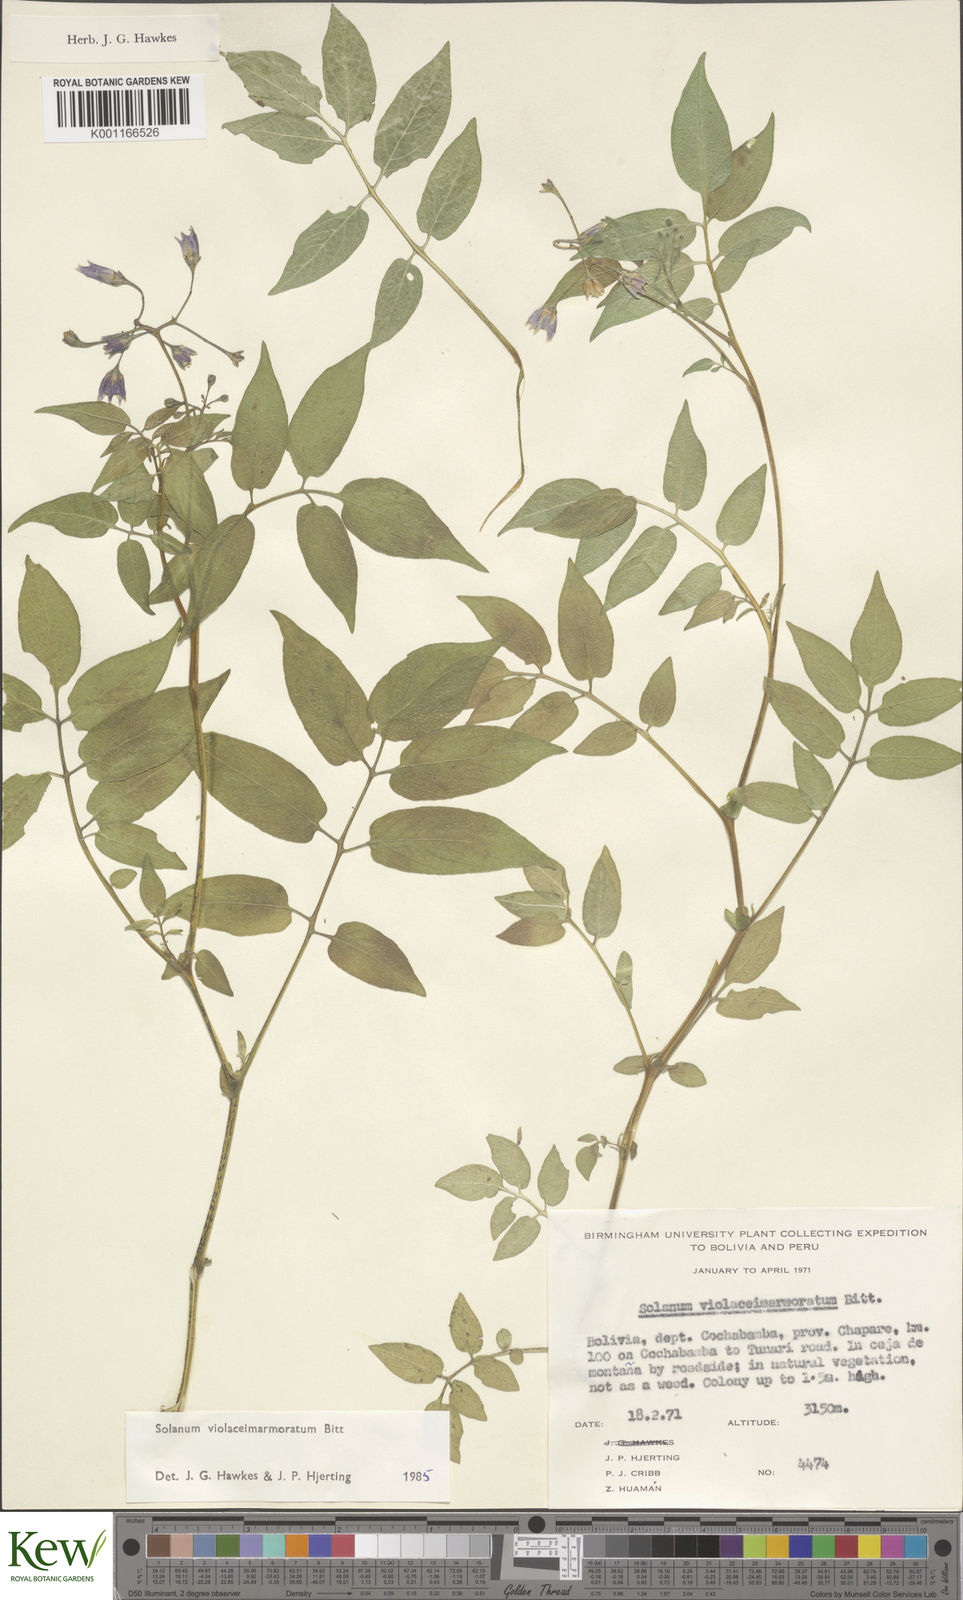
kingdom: Plantae
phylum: Tracheophyta
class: Magnoliopsida
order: Solanales
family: Solanaceae
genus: Solanum
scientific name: Solanum violaceimarmoratum
